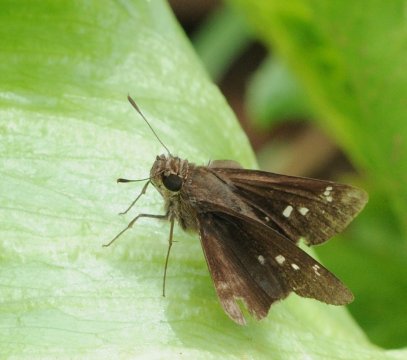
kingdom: Animalia
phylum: Arthropoda
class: Insecta
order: Lepidoptera
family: Hesperiidae
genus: Baoris
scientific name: Baoris fatuellus
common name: Long-horned Swift
